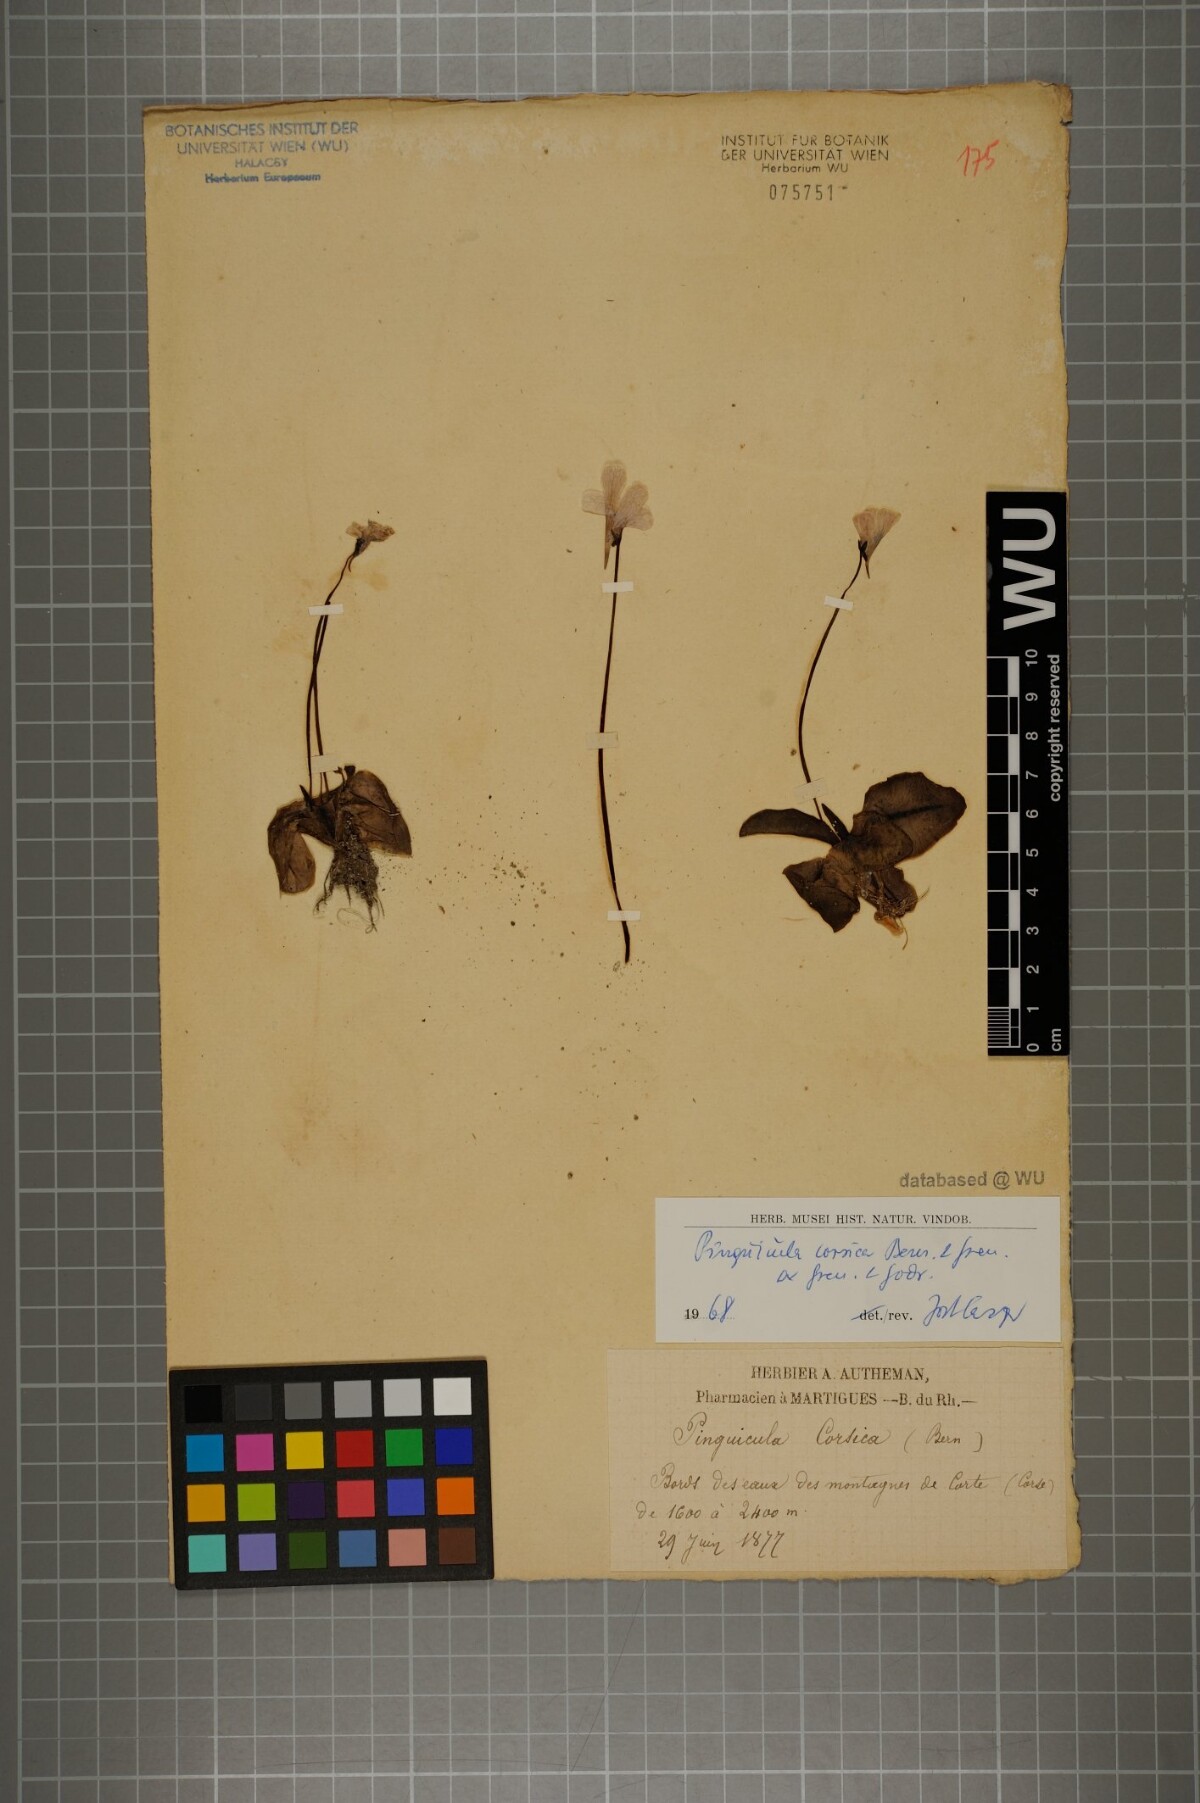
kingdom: Plantae
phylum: Tracheophyta
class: Magnoliopsida
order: Lamiales
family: Lentibulariaceae
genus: Pinguicula
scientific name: Pinguicula corsica
